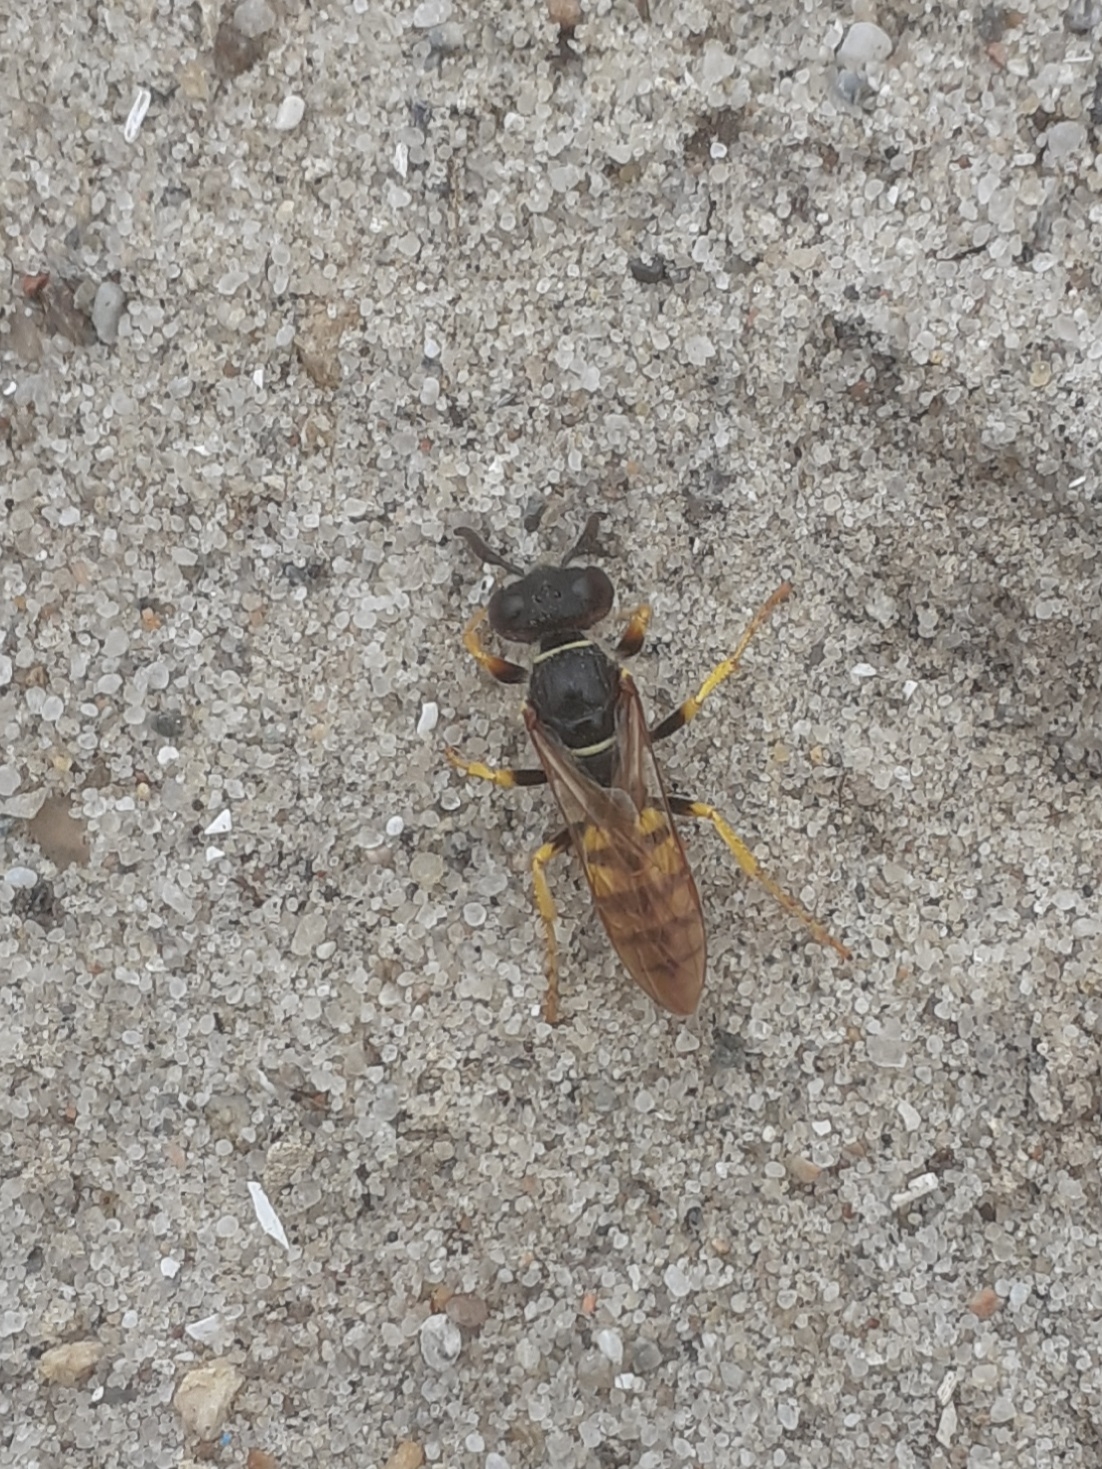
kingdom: Animalia
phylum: Arthropoda
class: Insecta
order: Hymenoptera
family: Crabronidae
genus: Philanthus
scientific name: Philanthus triangulum
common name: Biulv
